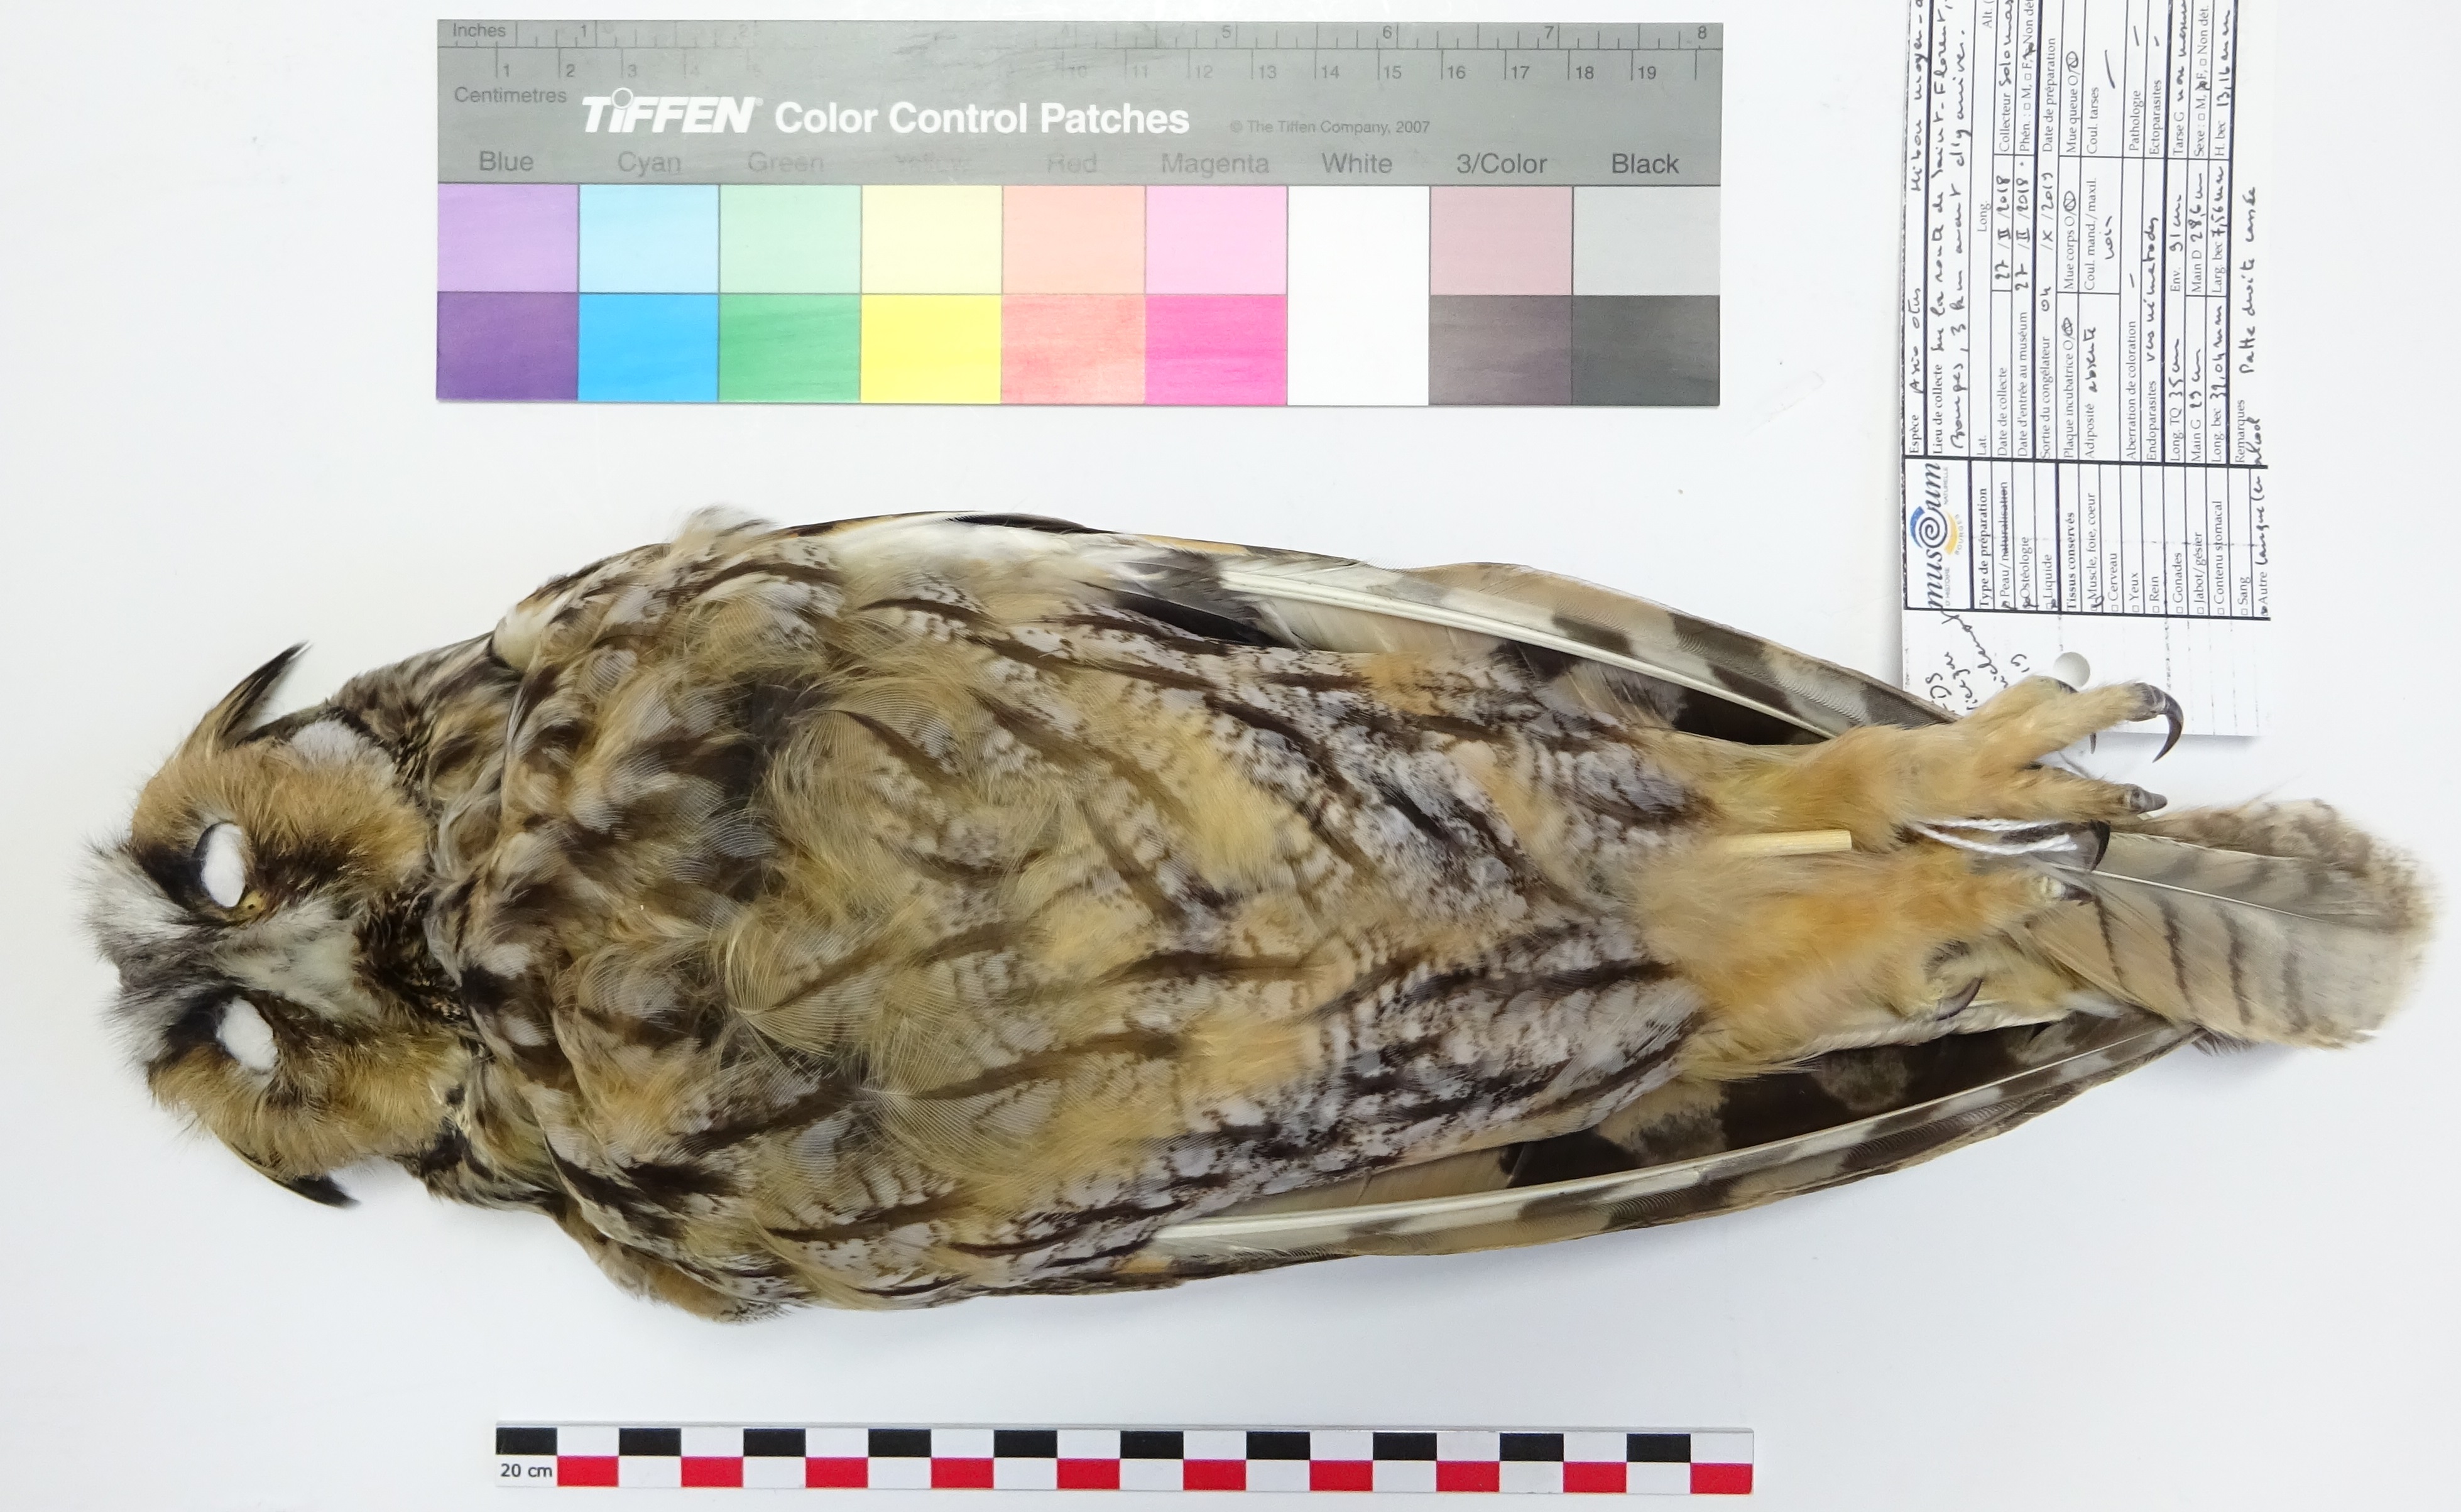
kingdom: Animalia
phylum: Chordata
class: Aves
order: Strigiformes
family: Strigidae
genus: Asio
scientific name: Asio otus
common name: Long-eared owl
